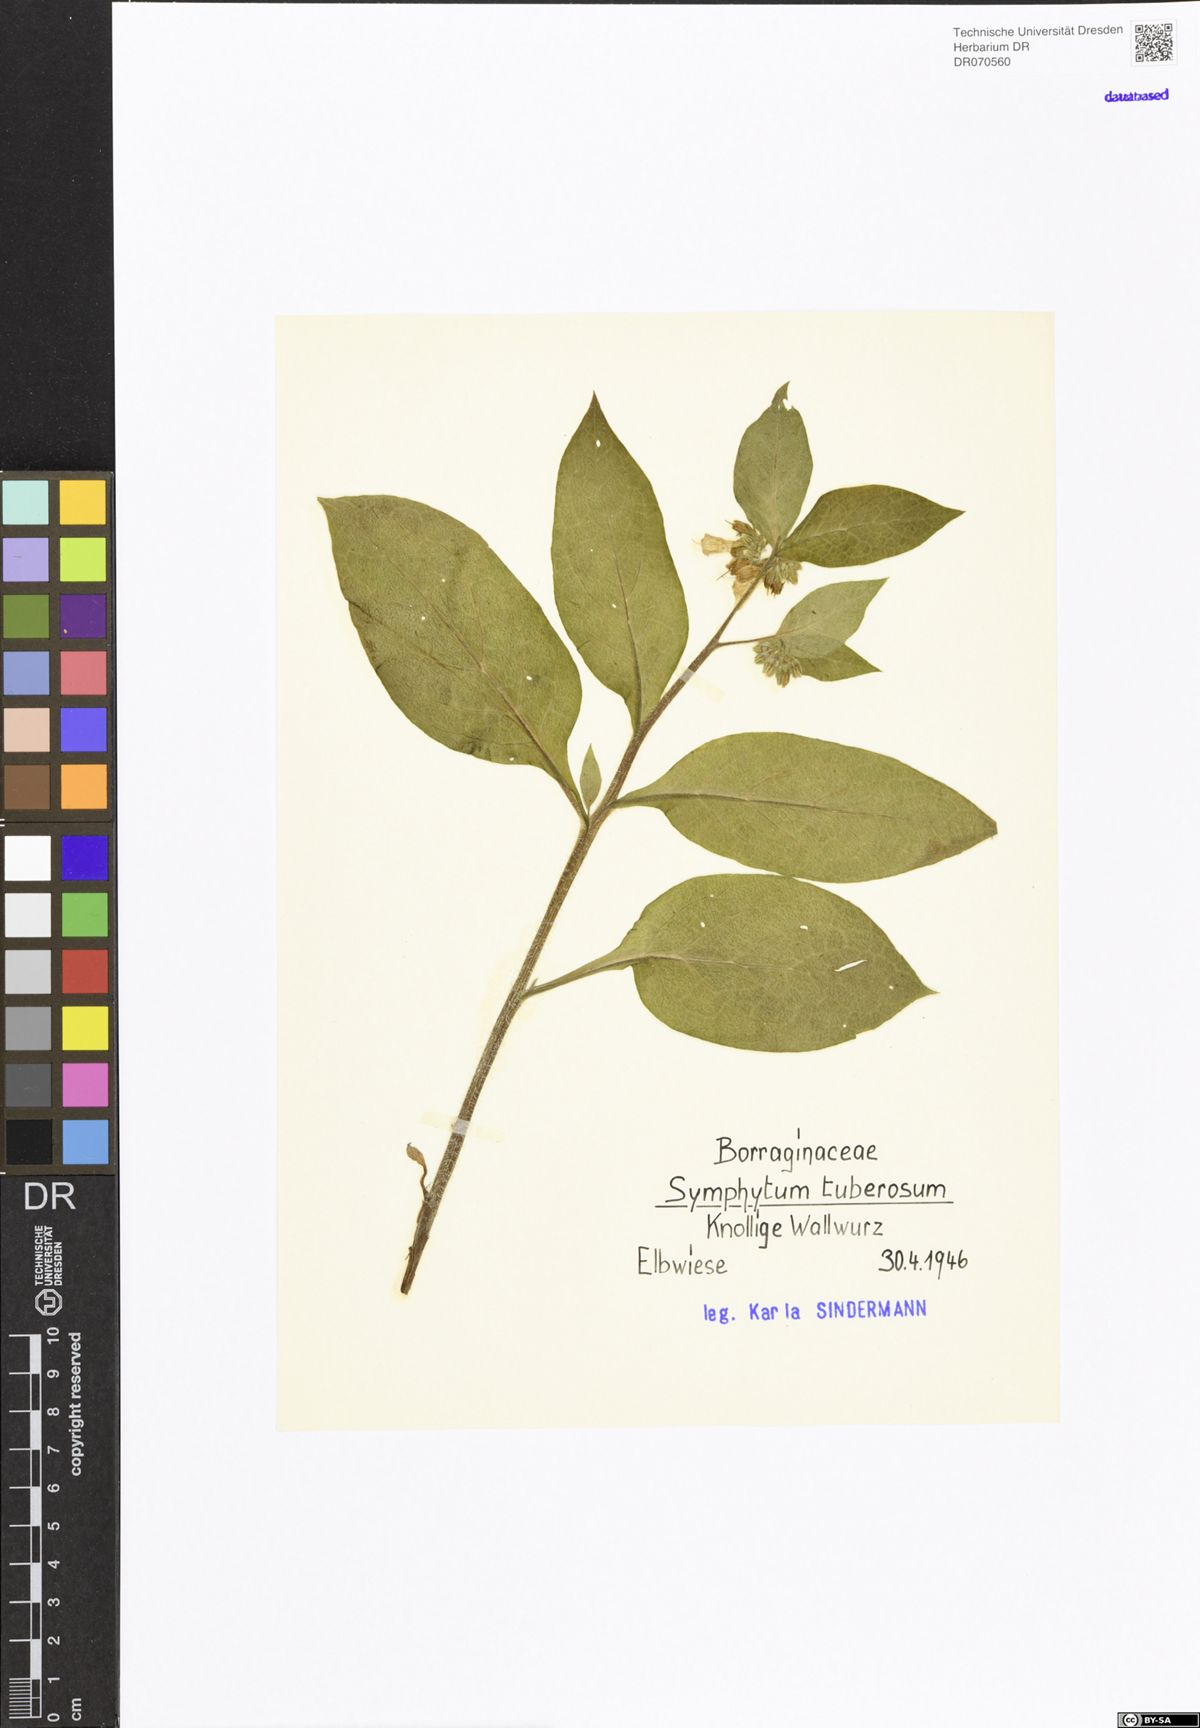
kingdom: Plantae
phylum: Tracheophyta
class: Magnoliopsida
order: Boraginales
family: Boraginaceae
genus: Symphytum
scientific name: Symphytum tuberosum
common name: Tuberous comfrey
